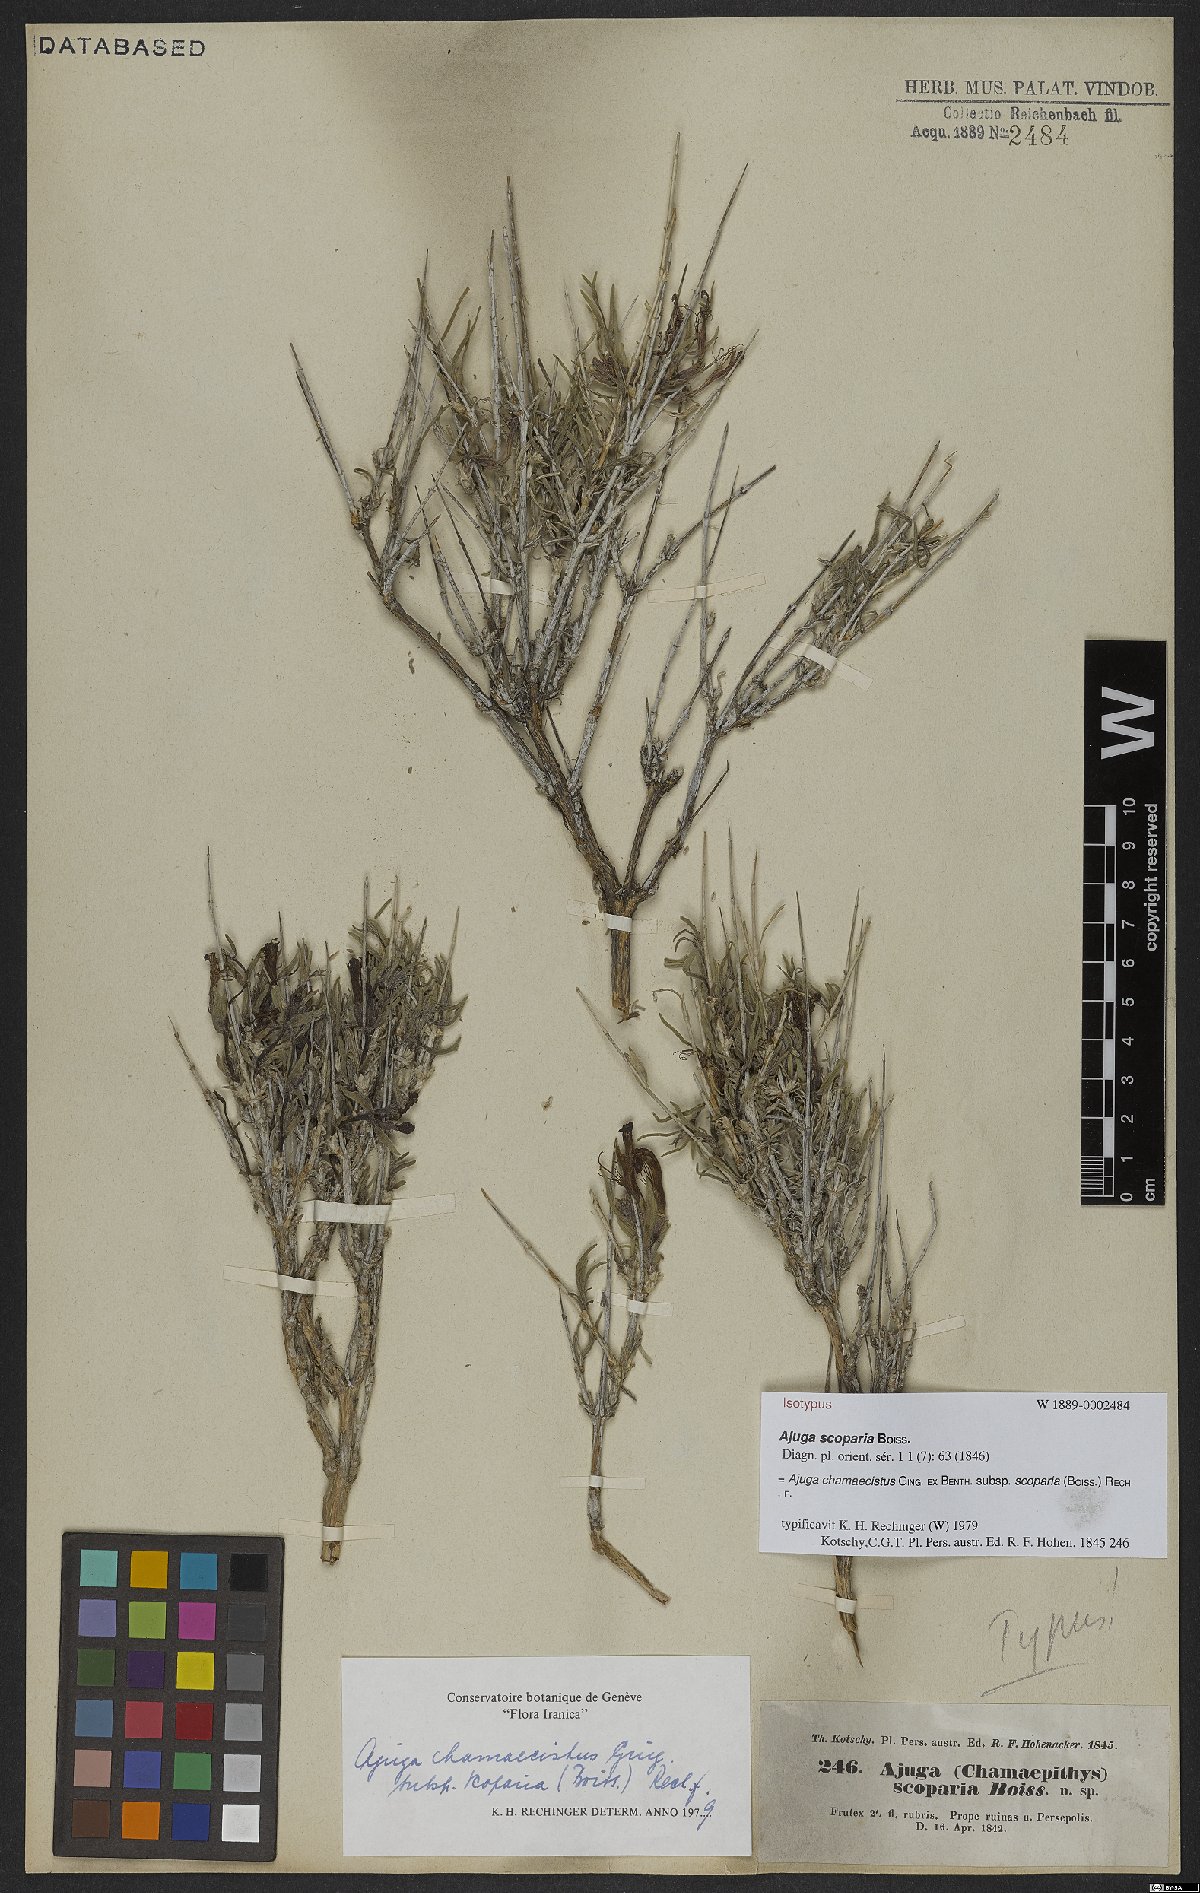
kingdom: Plantae
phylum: Tracheophyta
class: Magnoliopsida
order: Lamiales
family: Lamiaceae
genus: Ajuga
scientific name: Ajuga chamaecistus
